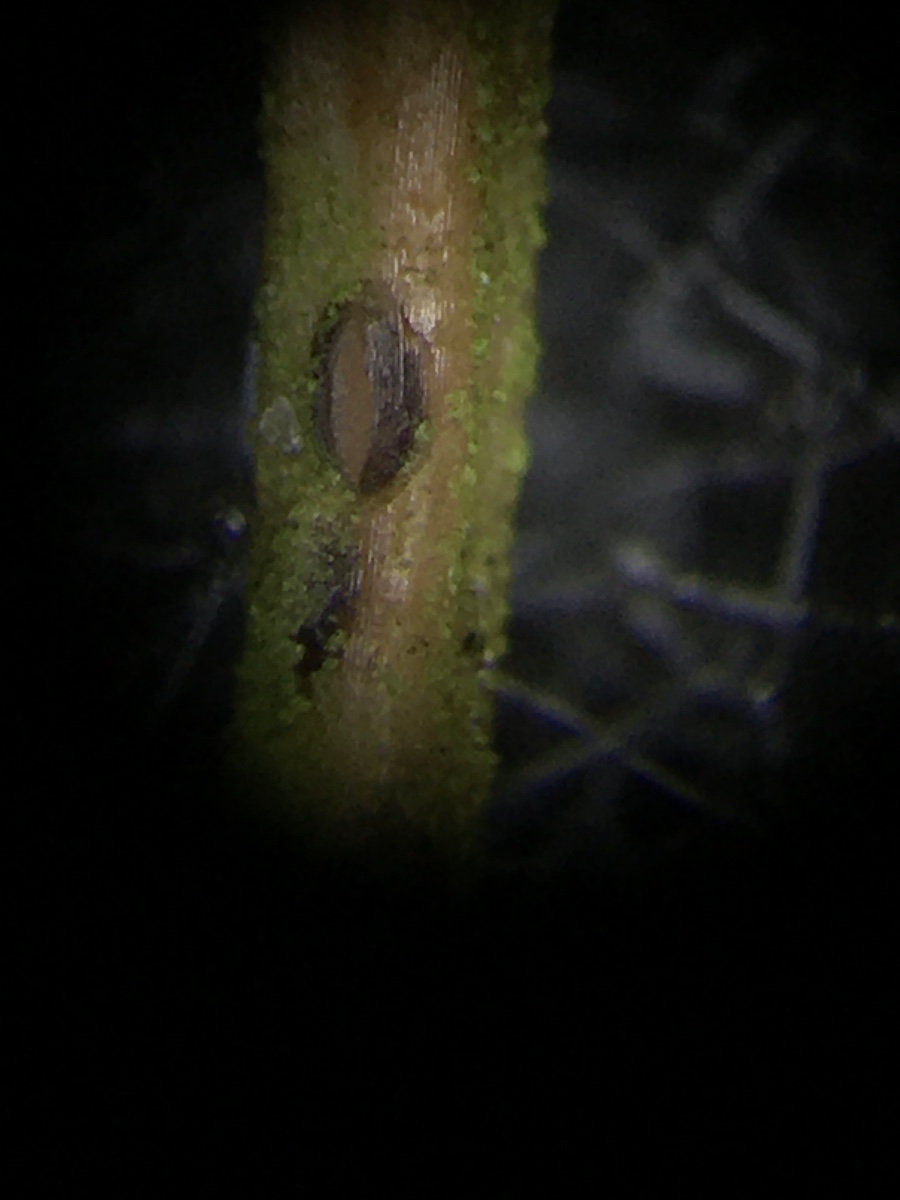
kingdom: Fungi
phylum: Ascomycota
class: Leotiomycetes
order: Rhytismatales
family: Rhytismataceae
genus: Lophodermium
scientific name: Lophodermium juniperinum
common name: ene-fureplet
